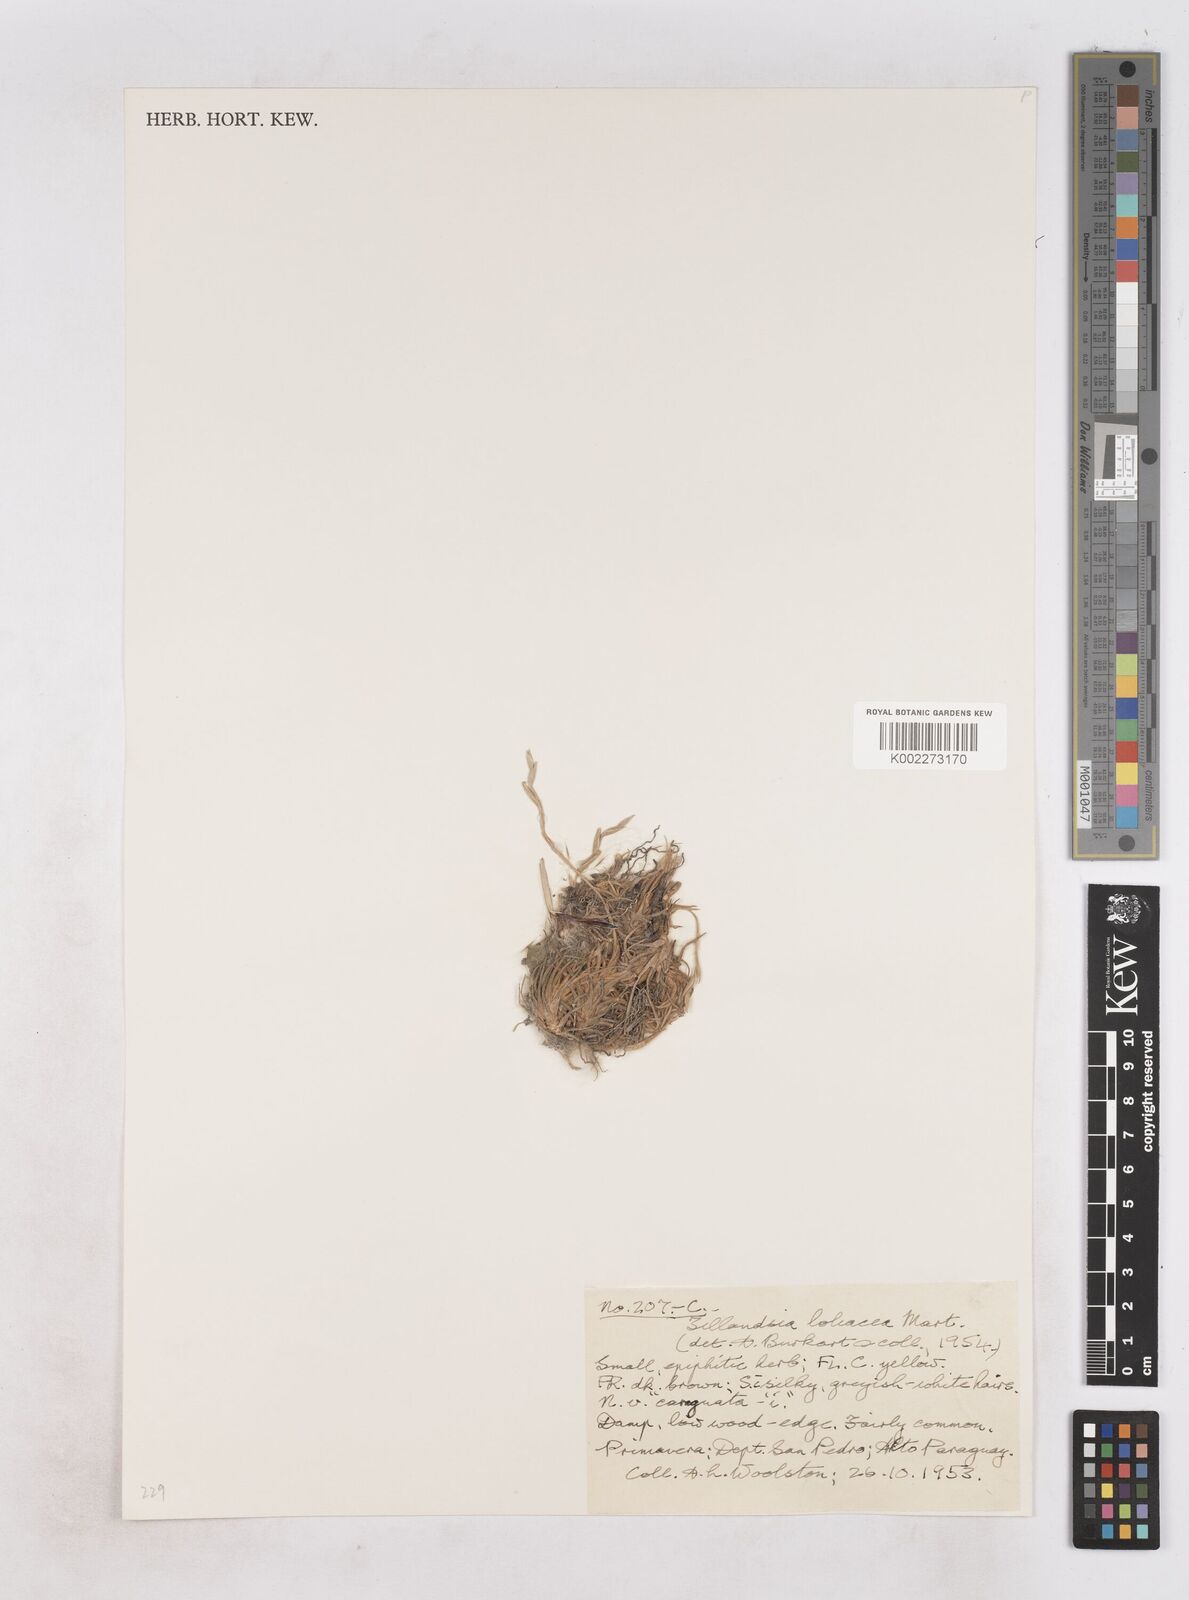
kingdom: Plantae
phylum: Tracheophyta
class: Liliopsida
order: Poales
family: Bromeliaceae
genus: Tillandsia
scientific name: Tillandsia loliacea
